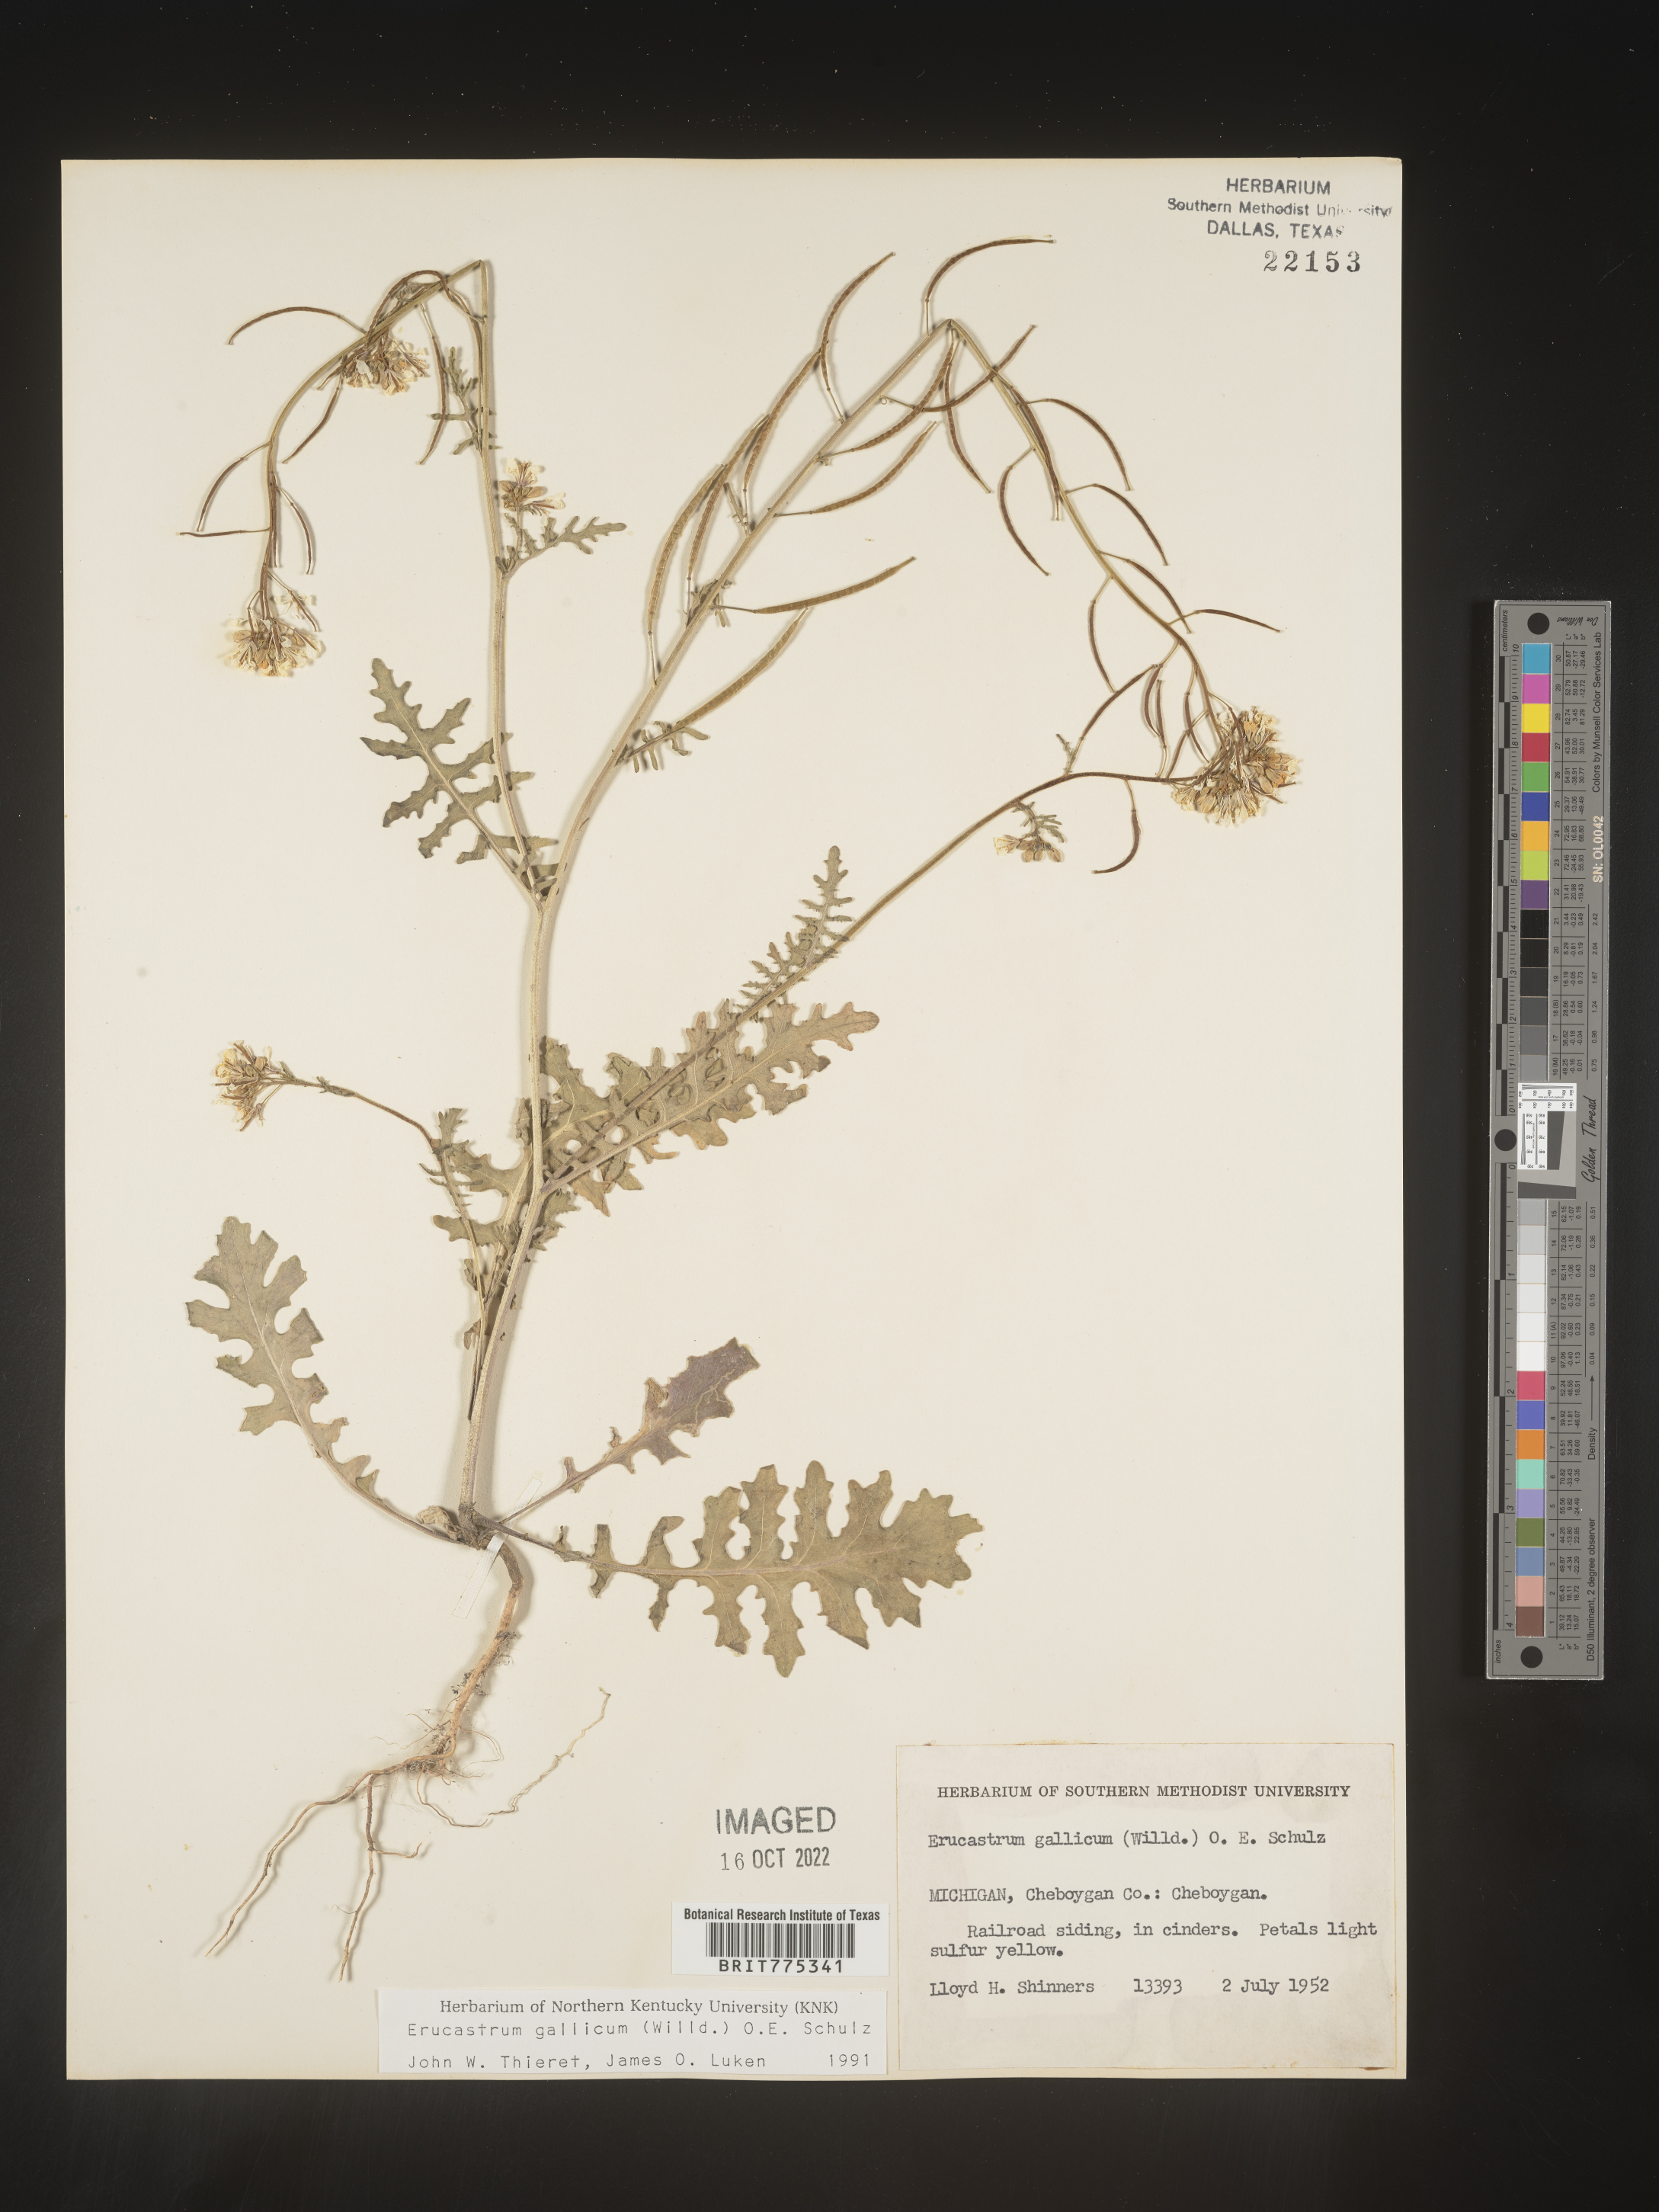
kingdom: Plantae
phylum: Tracheophyta
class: Magnoliopsida
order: Brassicales
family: Brassicaceae
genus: Erucastrum
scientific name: Erucastrum
